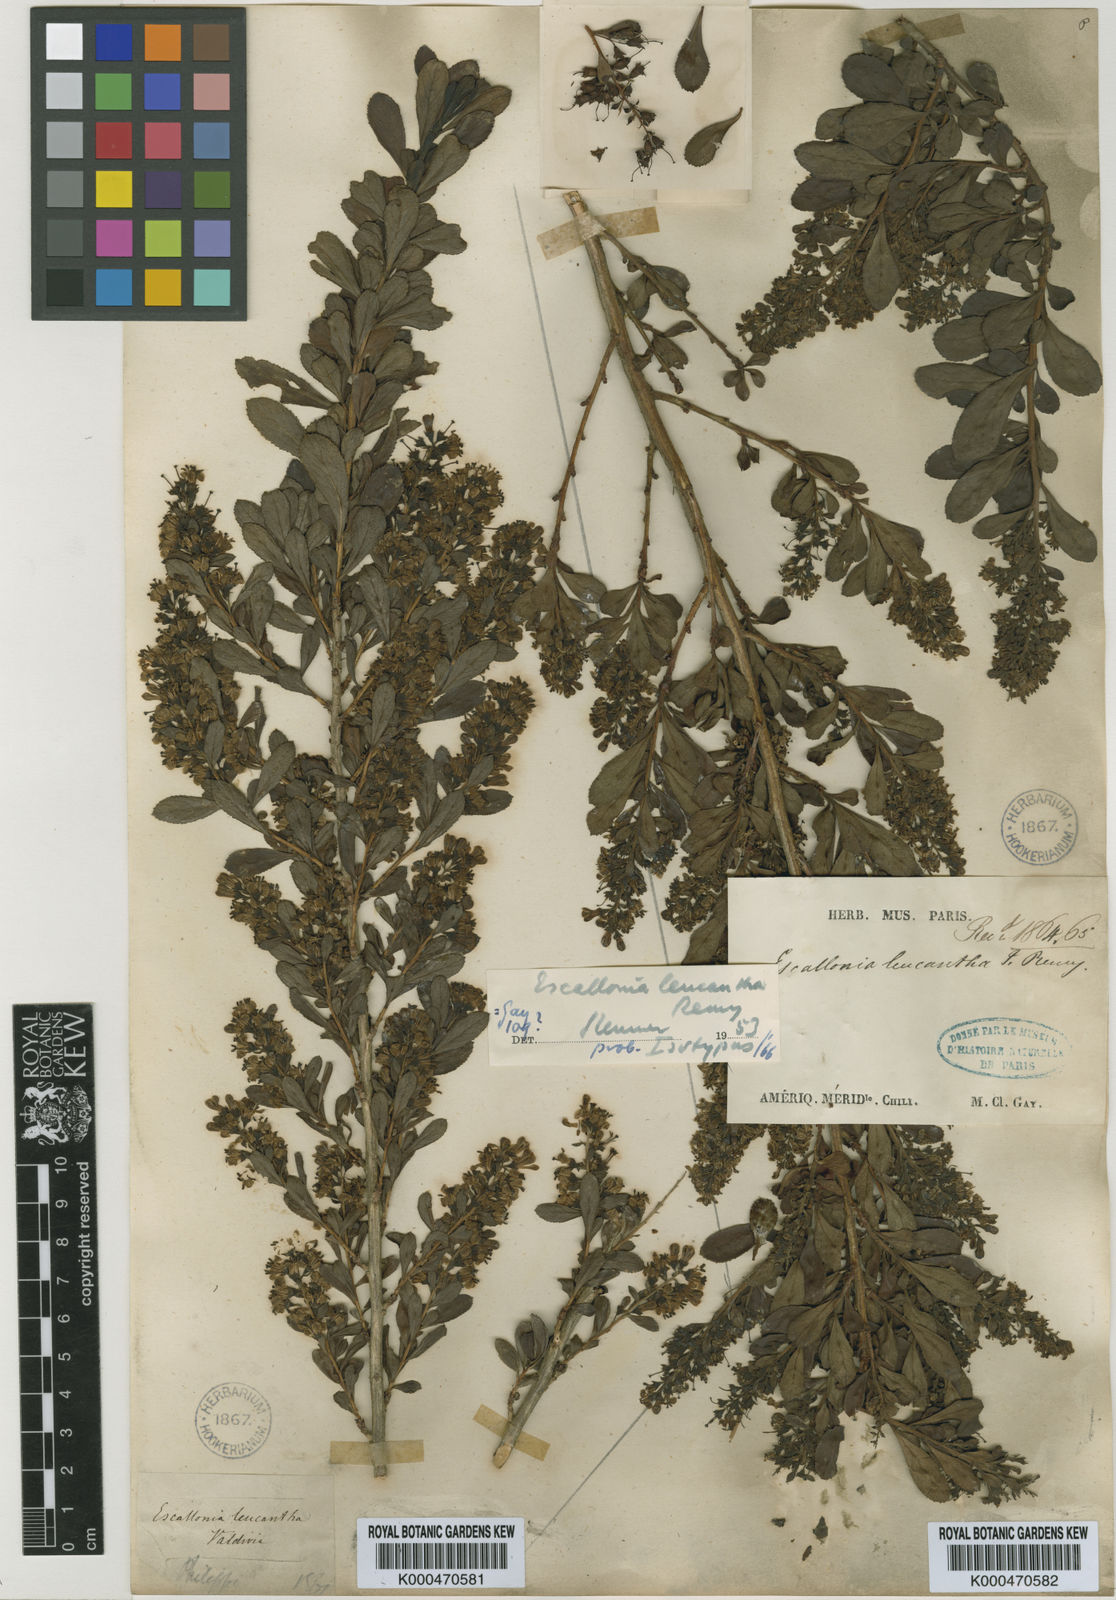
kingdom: Plantae
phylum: Tracheophyta
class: Magnoliopsida
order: Escalloniales
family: Escalloniaceae
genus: Escallonia
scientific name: Escallonia leucantha
